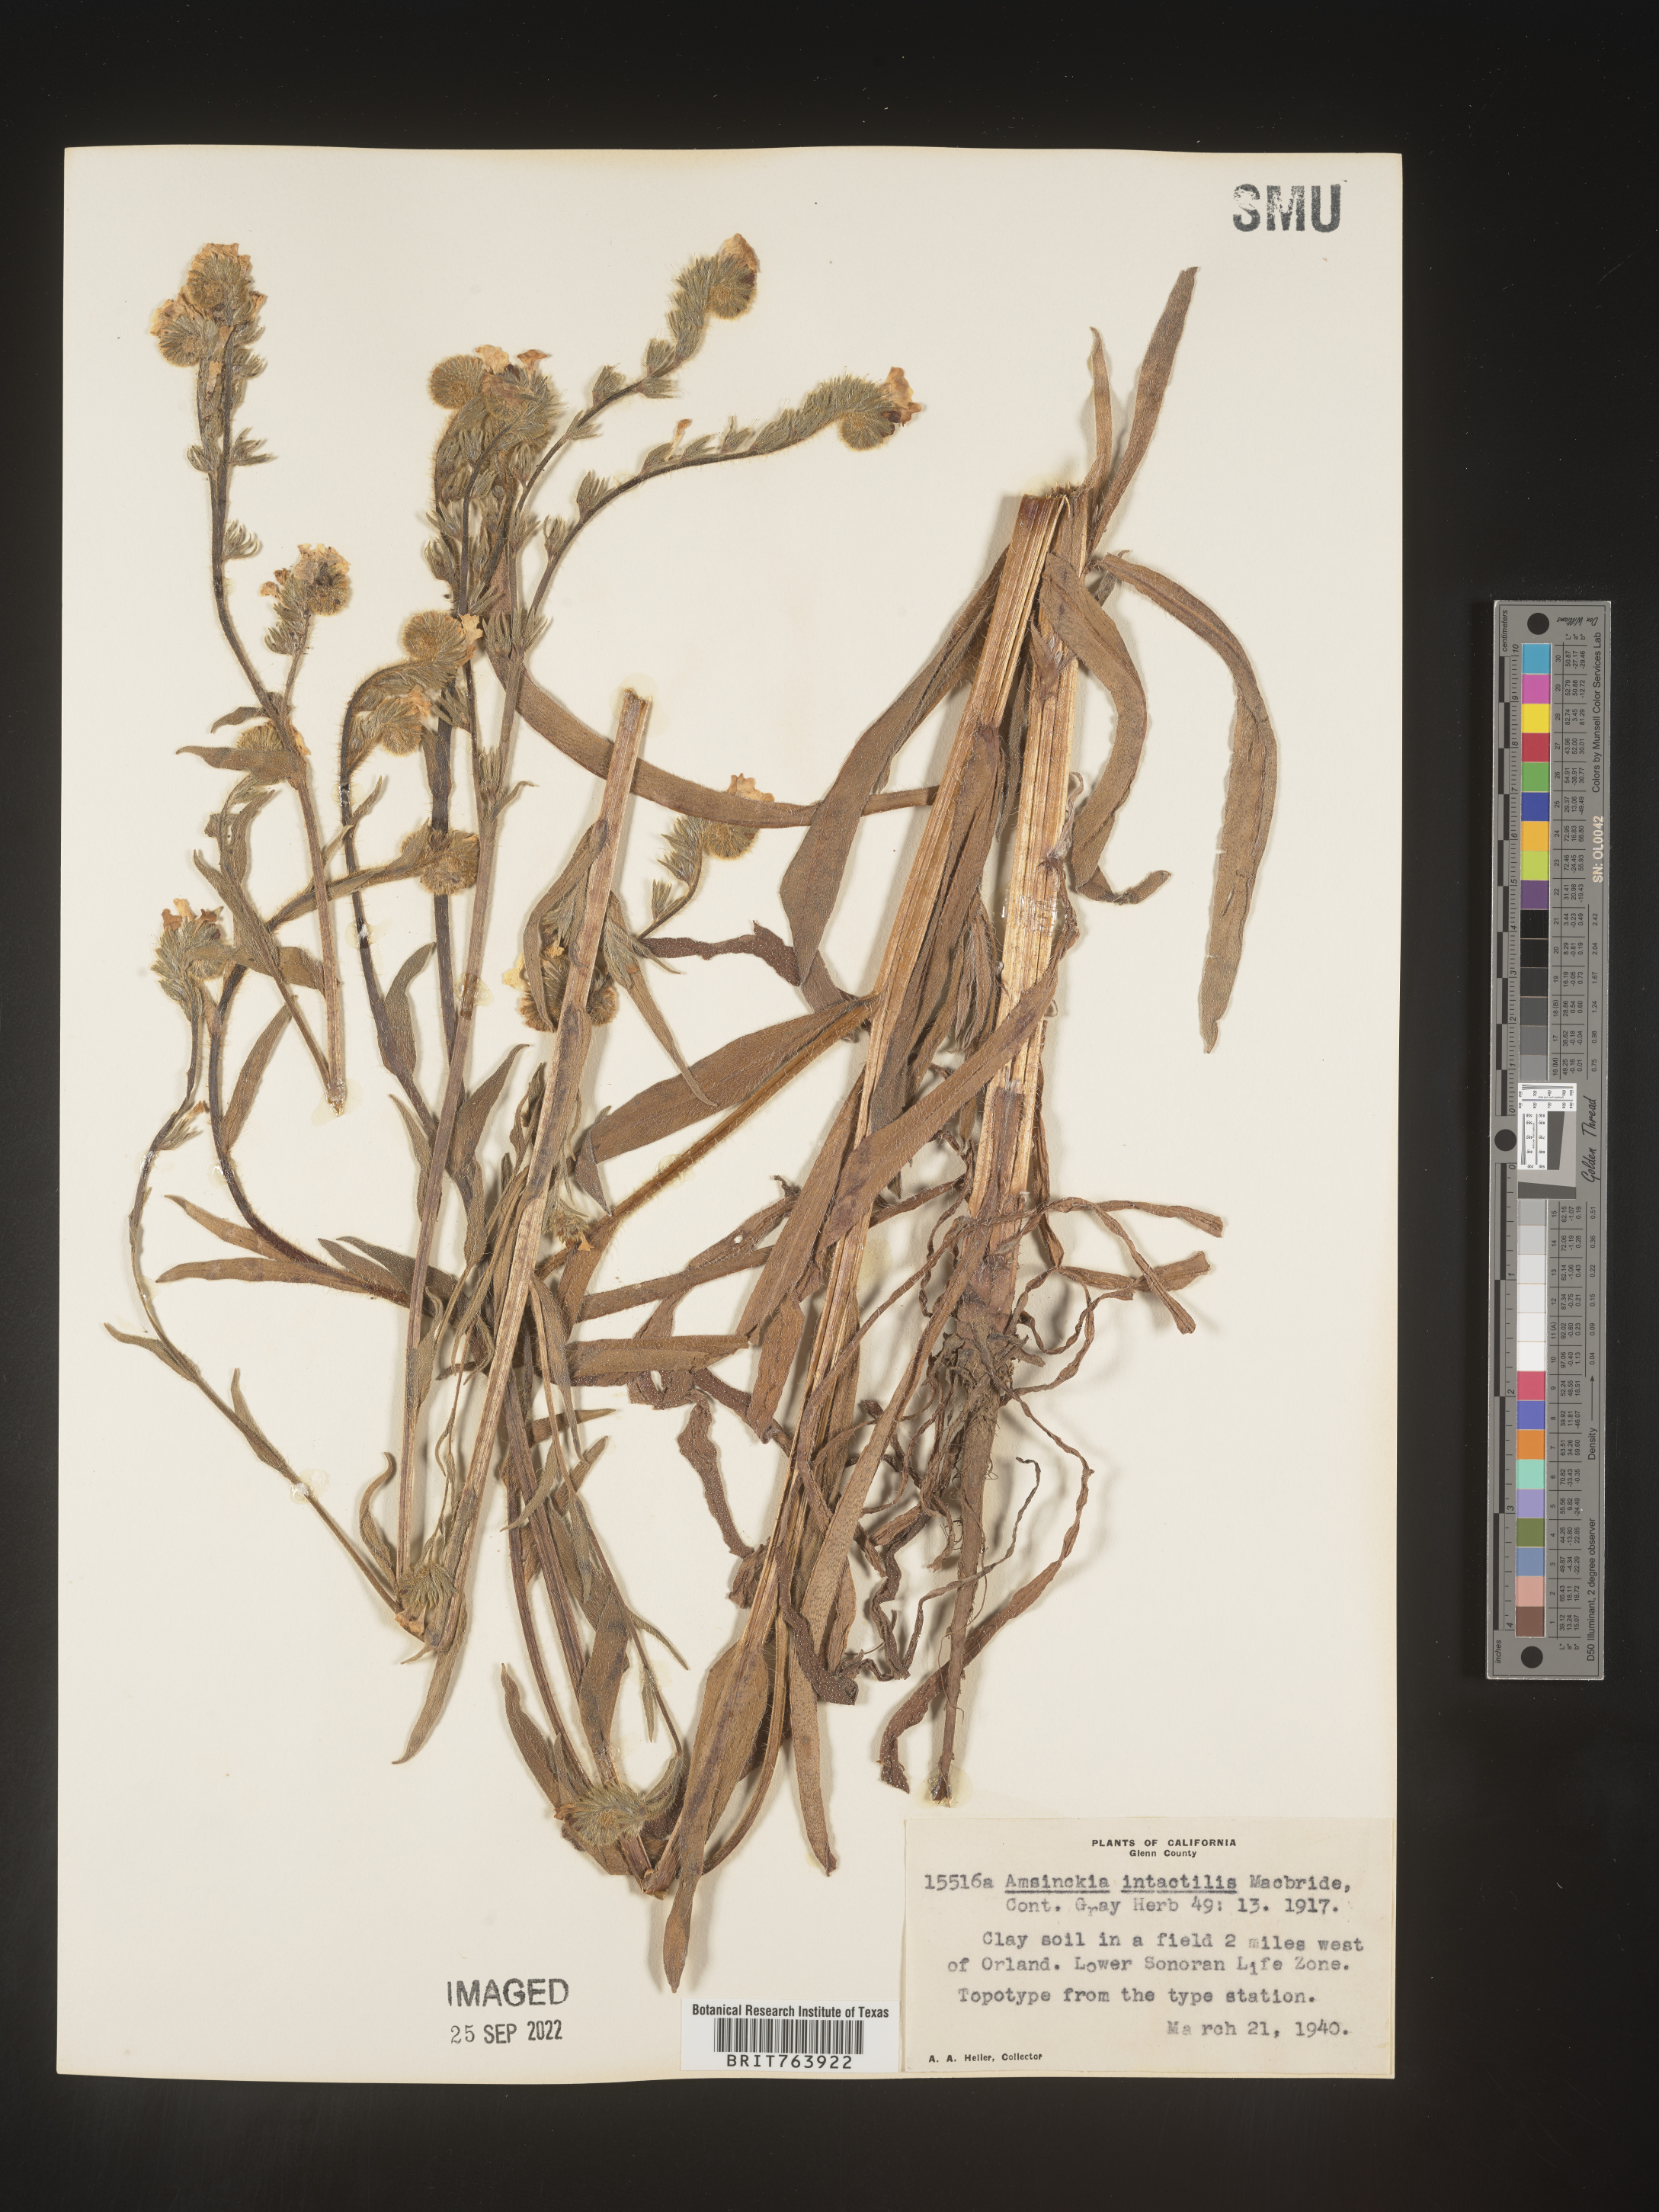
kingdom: Plantae
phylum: Tracheophyta
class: Magnoliopsida
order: Boraginales
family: Boraginaceae
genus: Amsinckia
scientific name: Amsinckia
